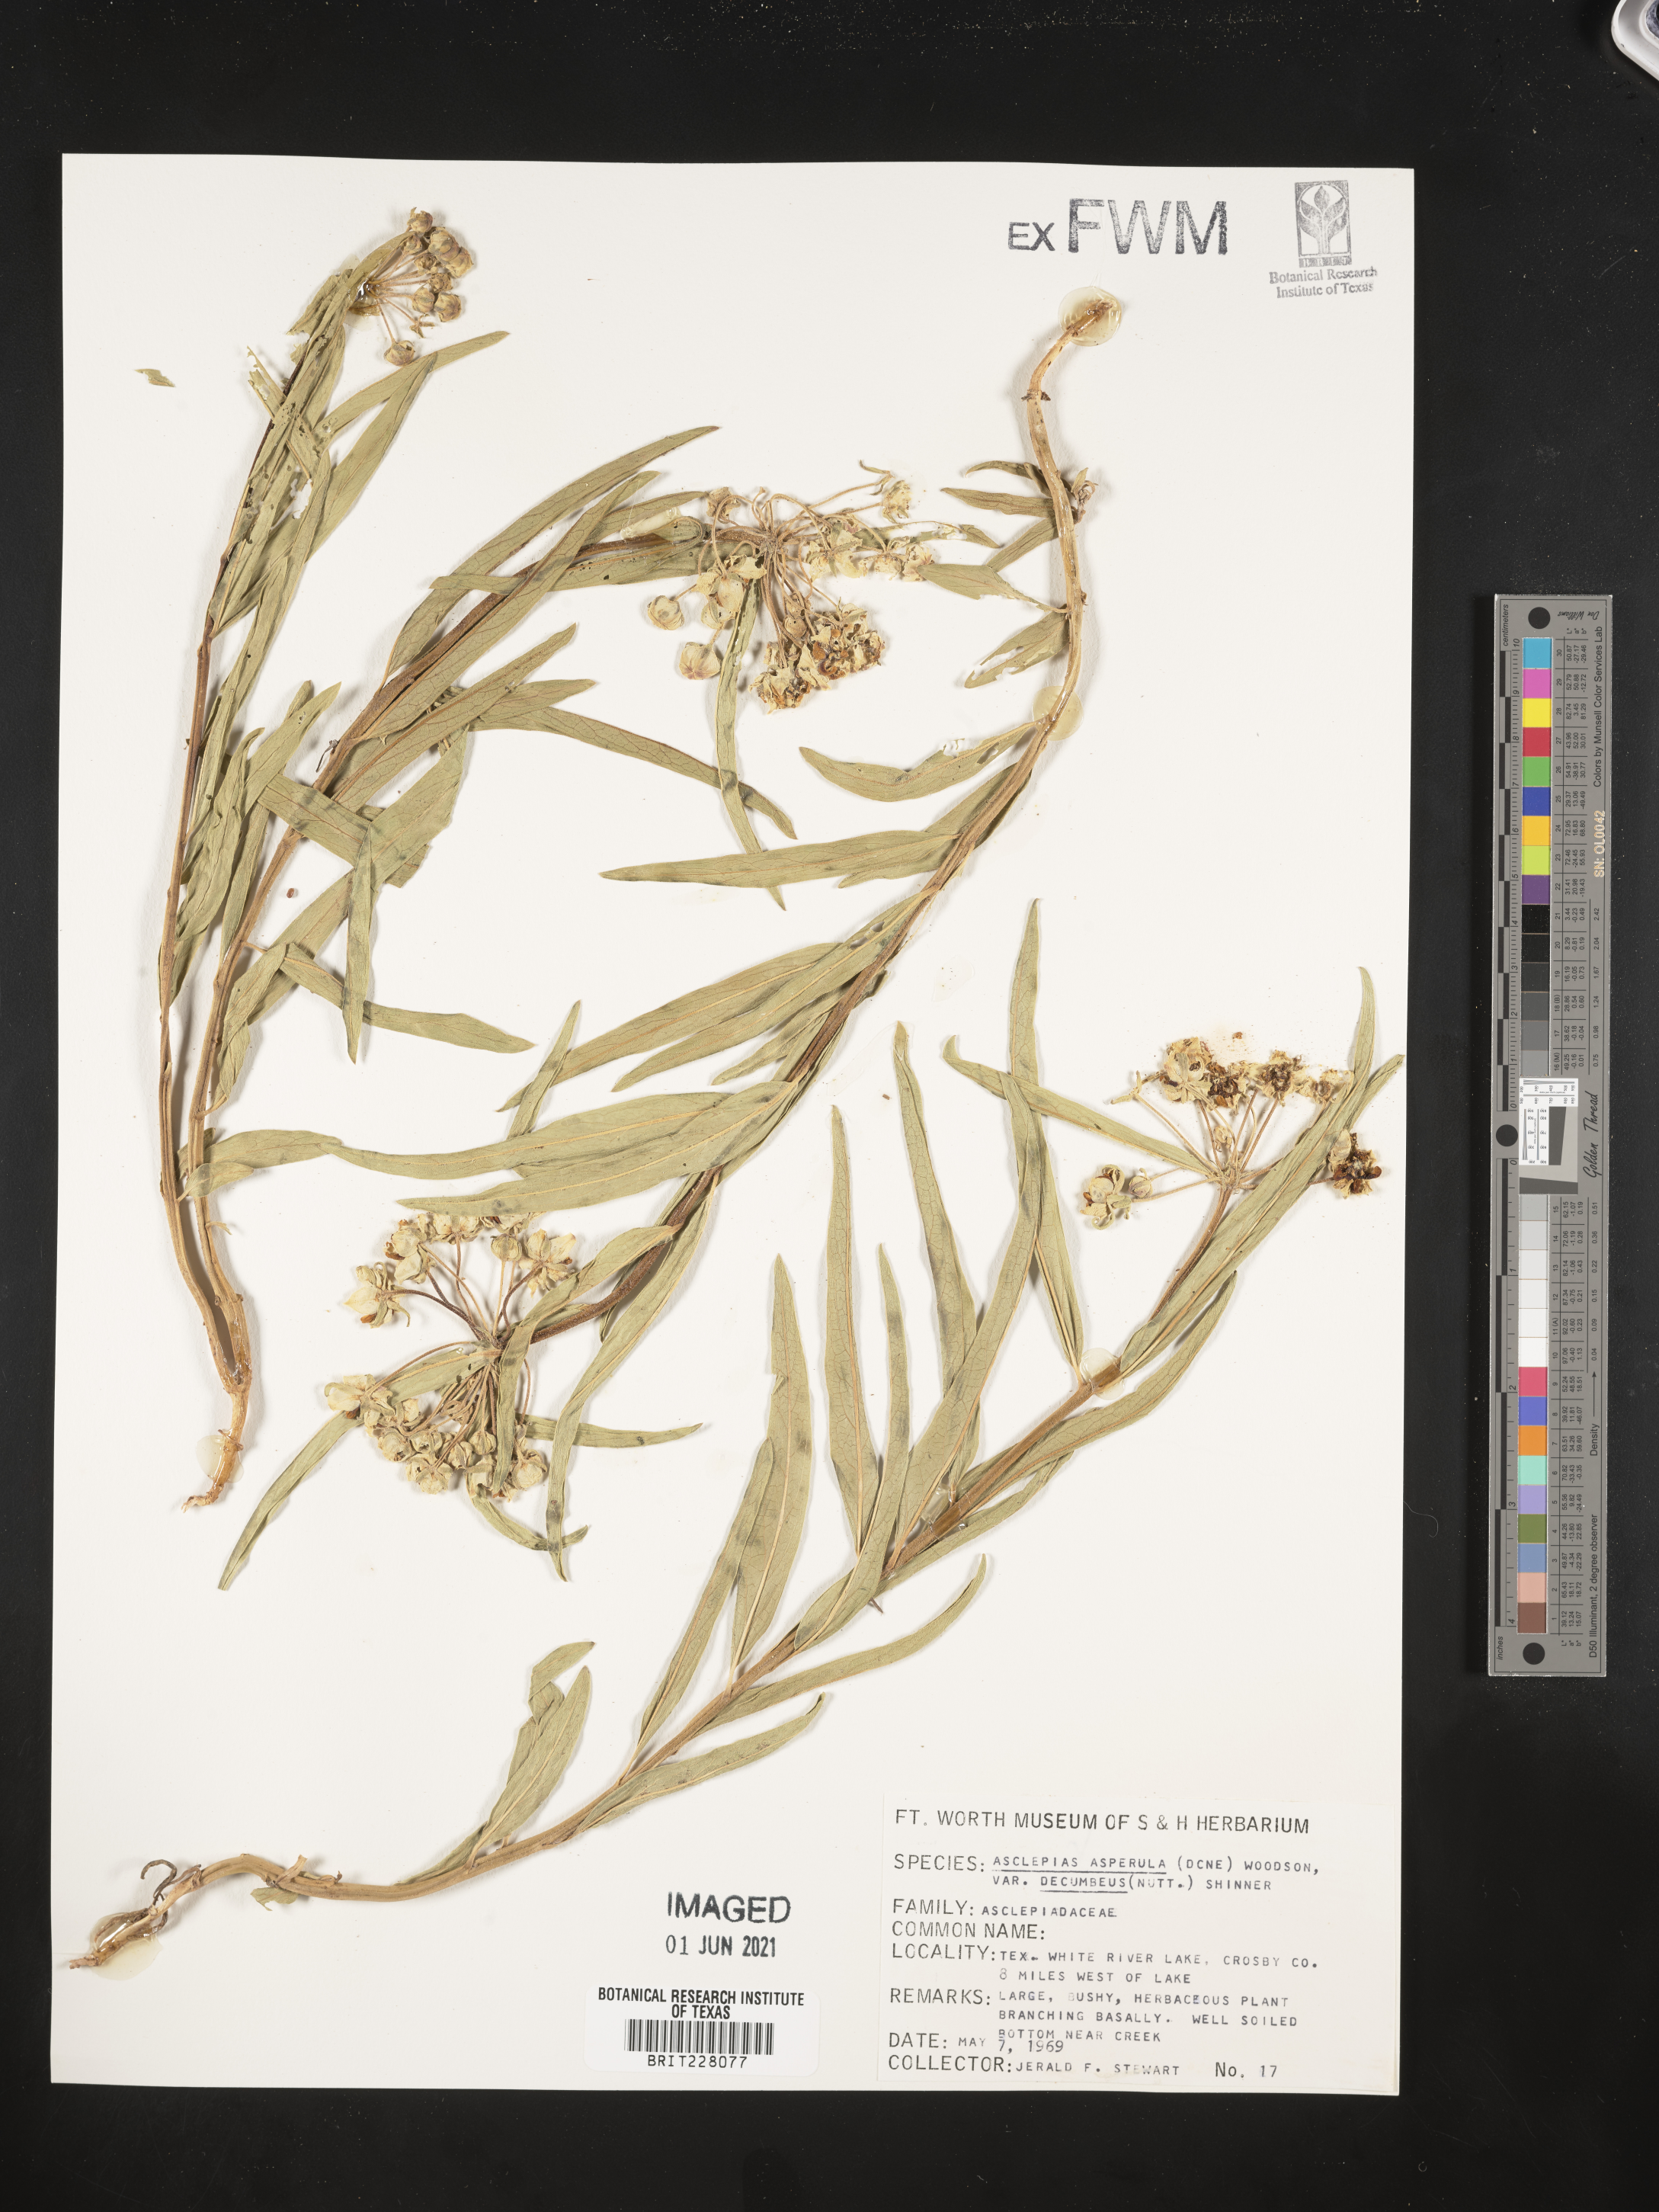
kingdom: Plantae
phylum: Tracheophyta
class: Magnoliopsida
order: Gentianales
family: Apocynaceae
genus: Asclepias
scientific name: Asclepias asperula
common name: Antelope horns
